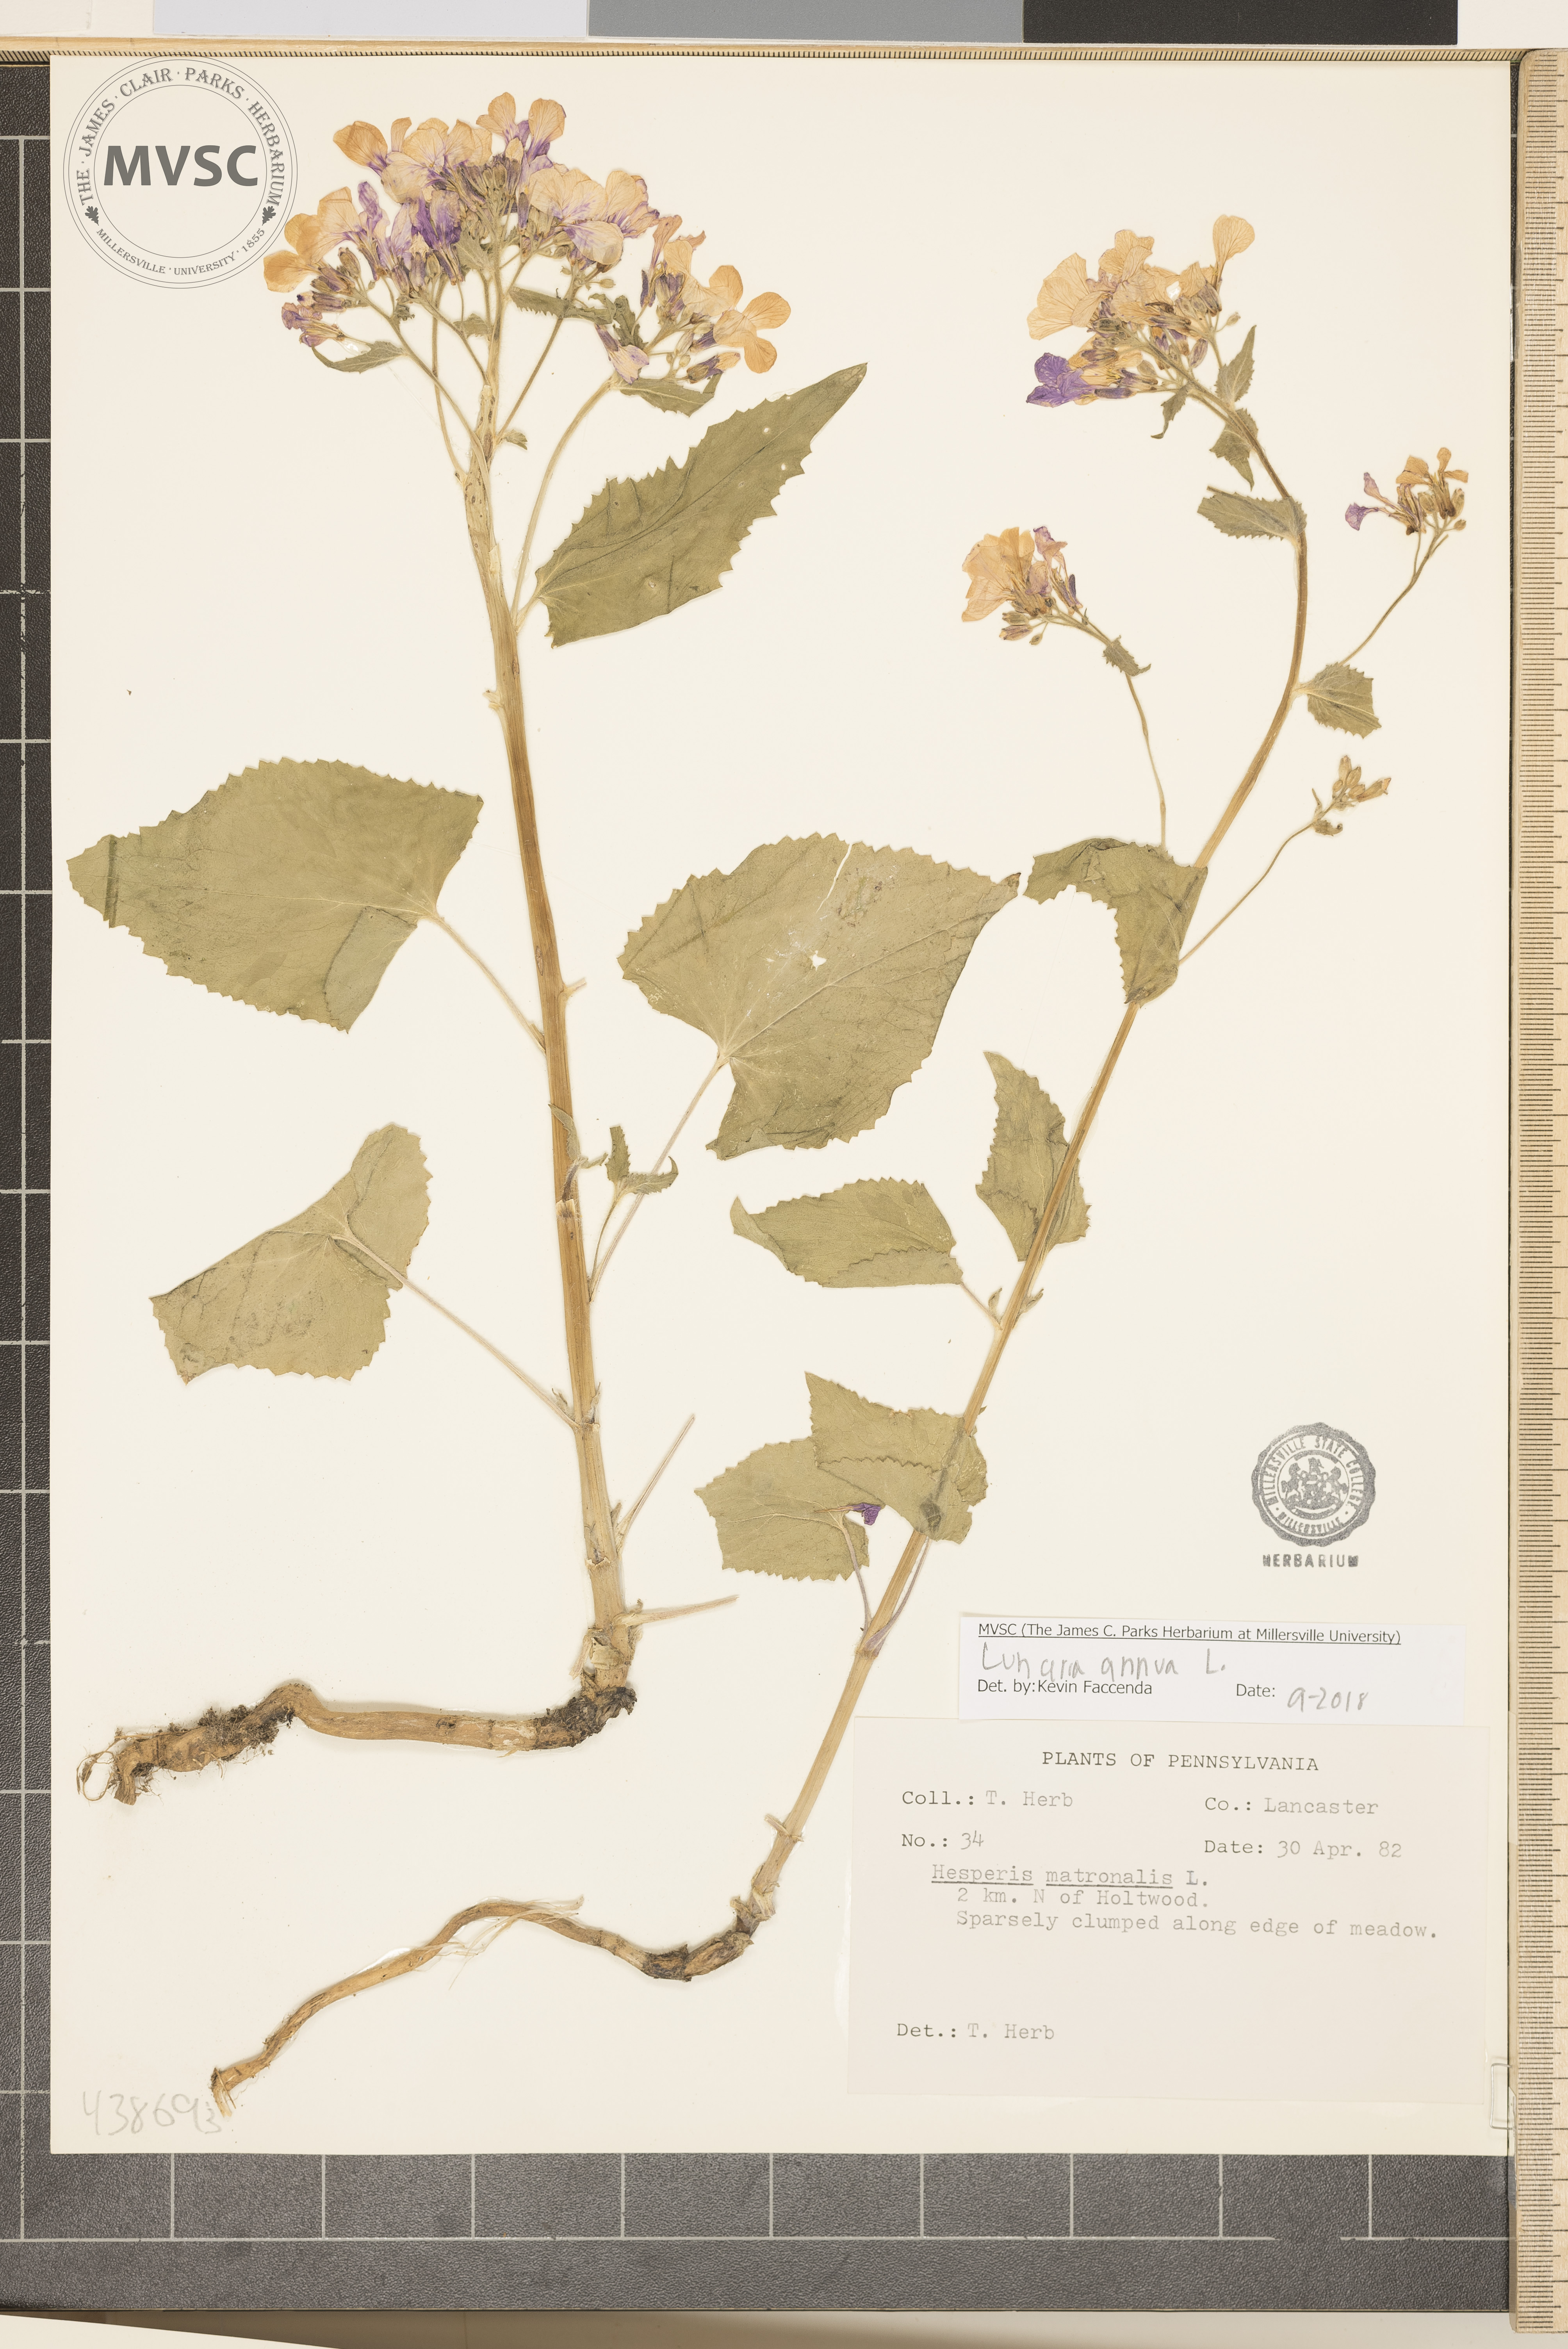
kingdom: Plantae
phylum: Tracheophyta
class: Magnoliopsida
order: Brassicales
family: Brassicaceae
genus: Lunaria
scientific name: Lunaria annua
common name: Honesty
